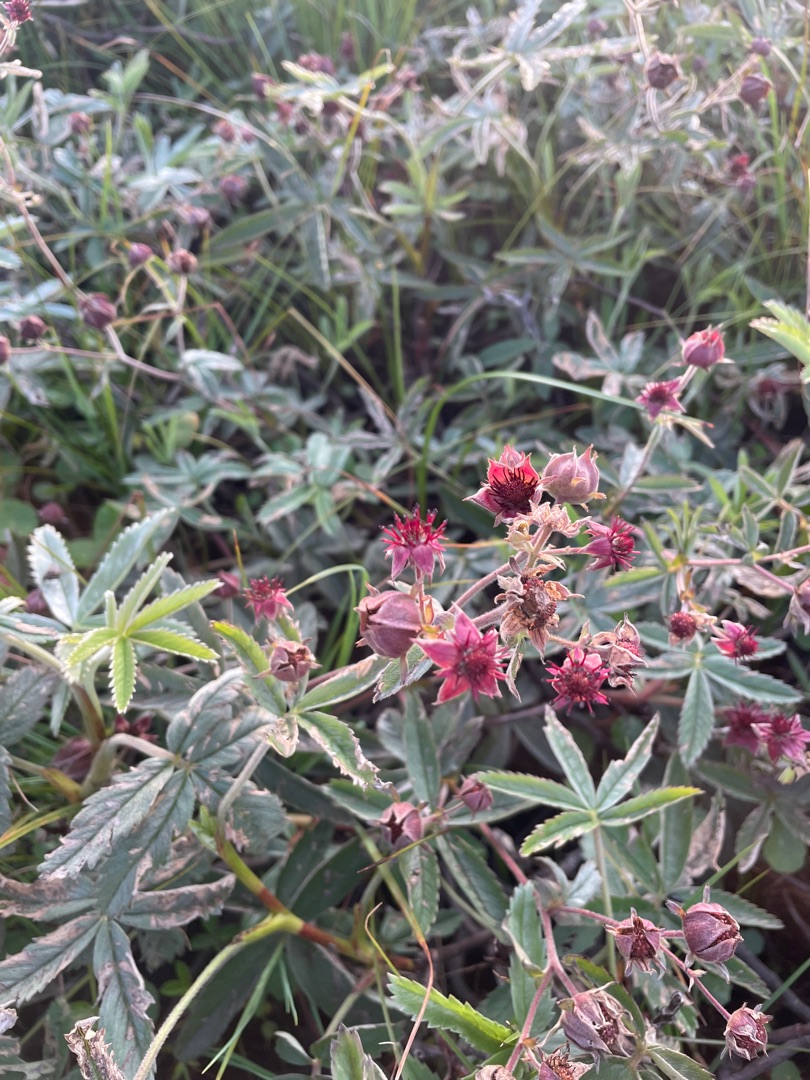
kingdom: Plantae
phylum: Tracheophyta
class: Magnoliopsida
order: Rosales
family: Rosaceae
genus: Comarum
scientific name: Comarum palustre
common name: Kragefod
